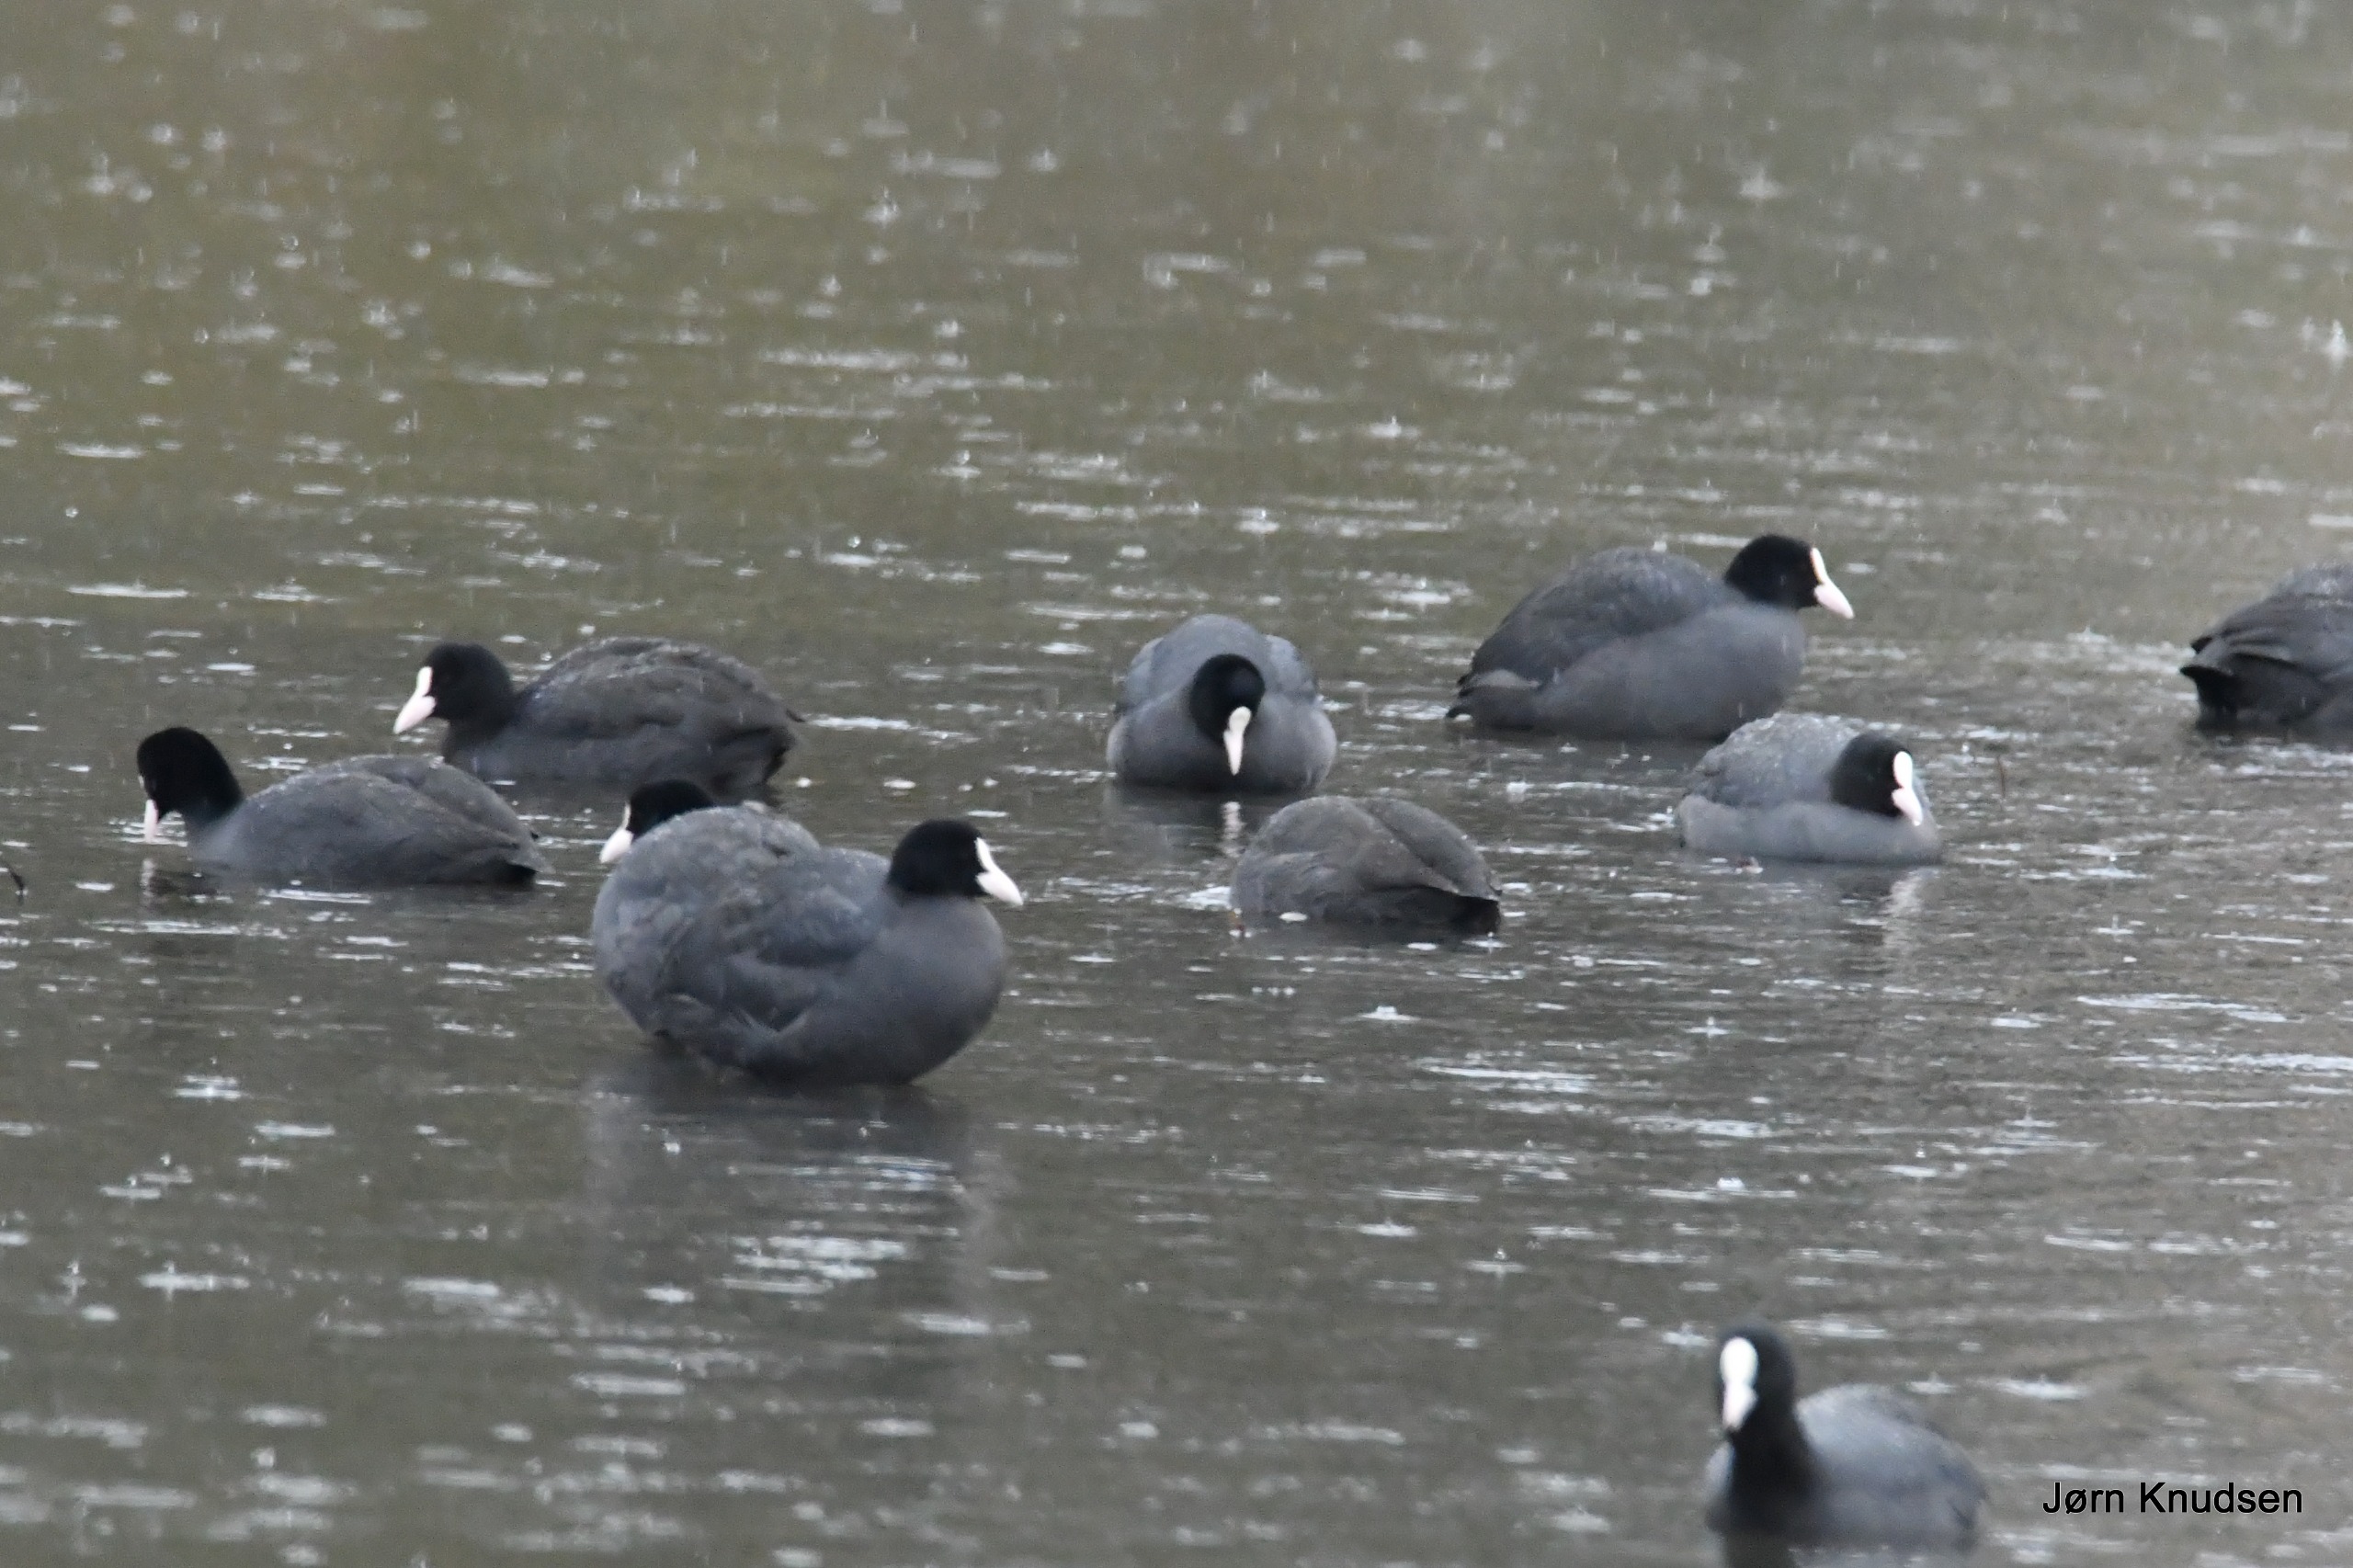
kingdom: Animalia
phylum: Chordata
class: Aves
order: Gruiformes
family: Rallidae
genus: Fulica
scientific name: Fulica atra
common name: Blishøne
